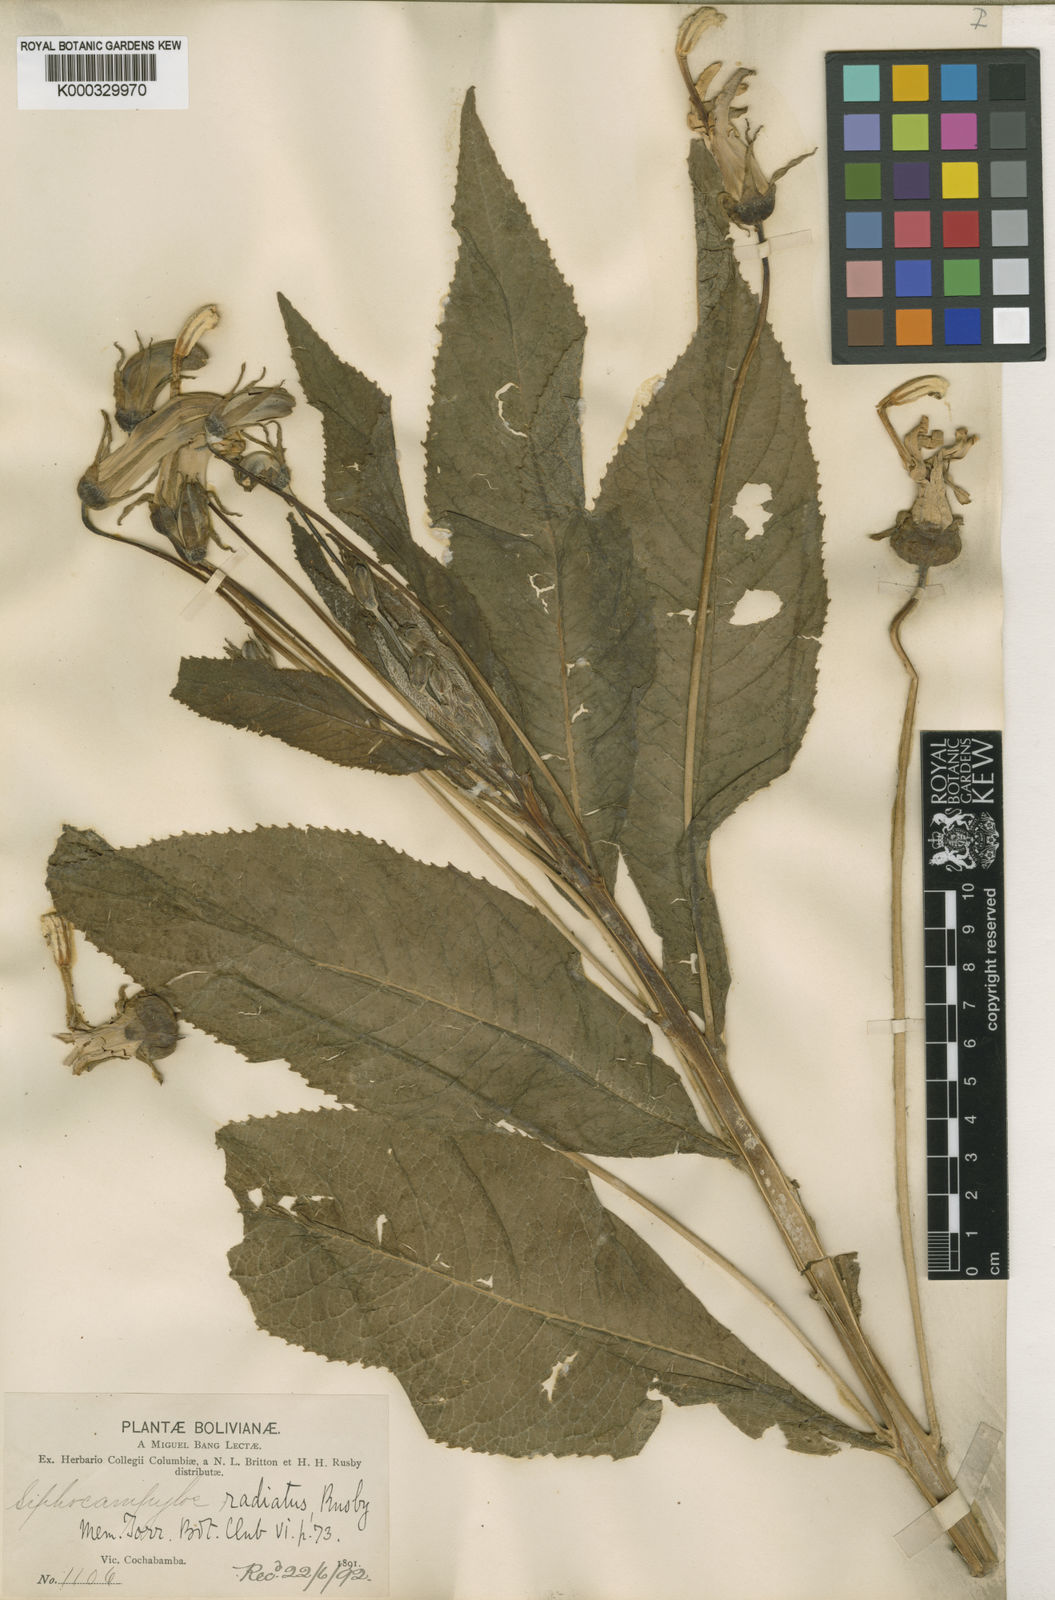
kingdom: Plantae
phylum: Tracheophyta
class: Magnoliopsida
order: Asterales
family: Campanulaceae
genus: Siphocampylus
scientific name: Siphocampylus radiatus
